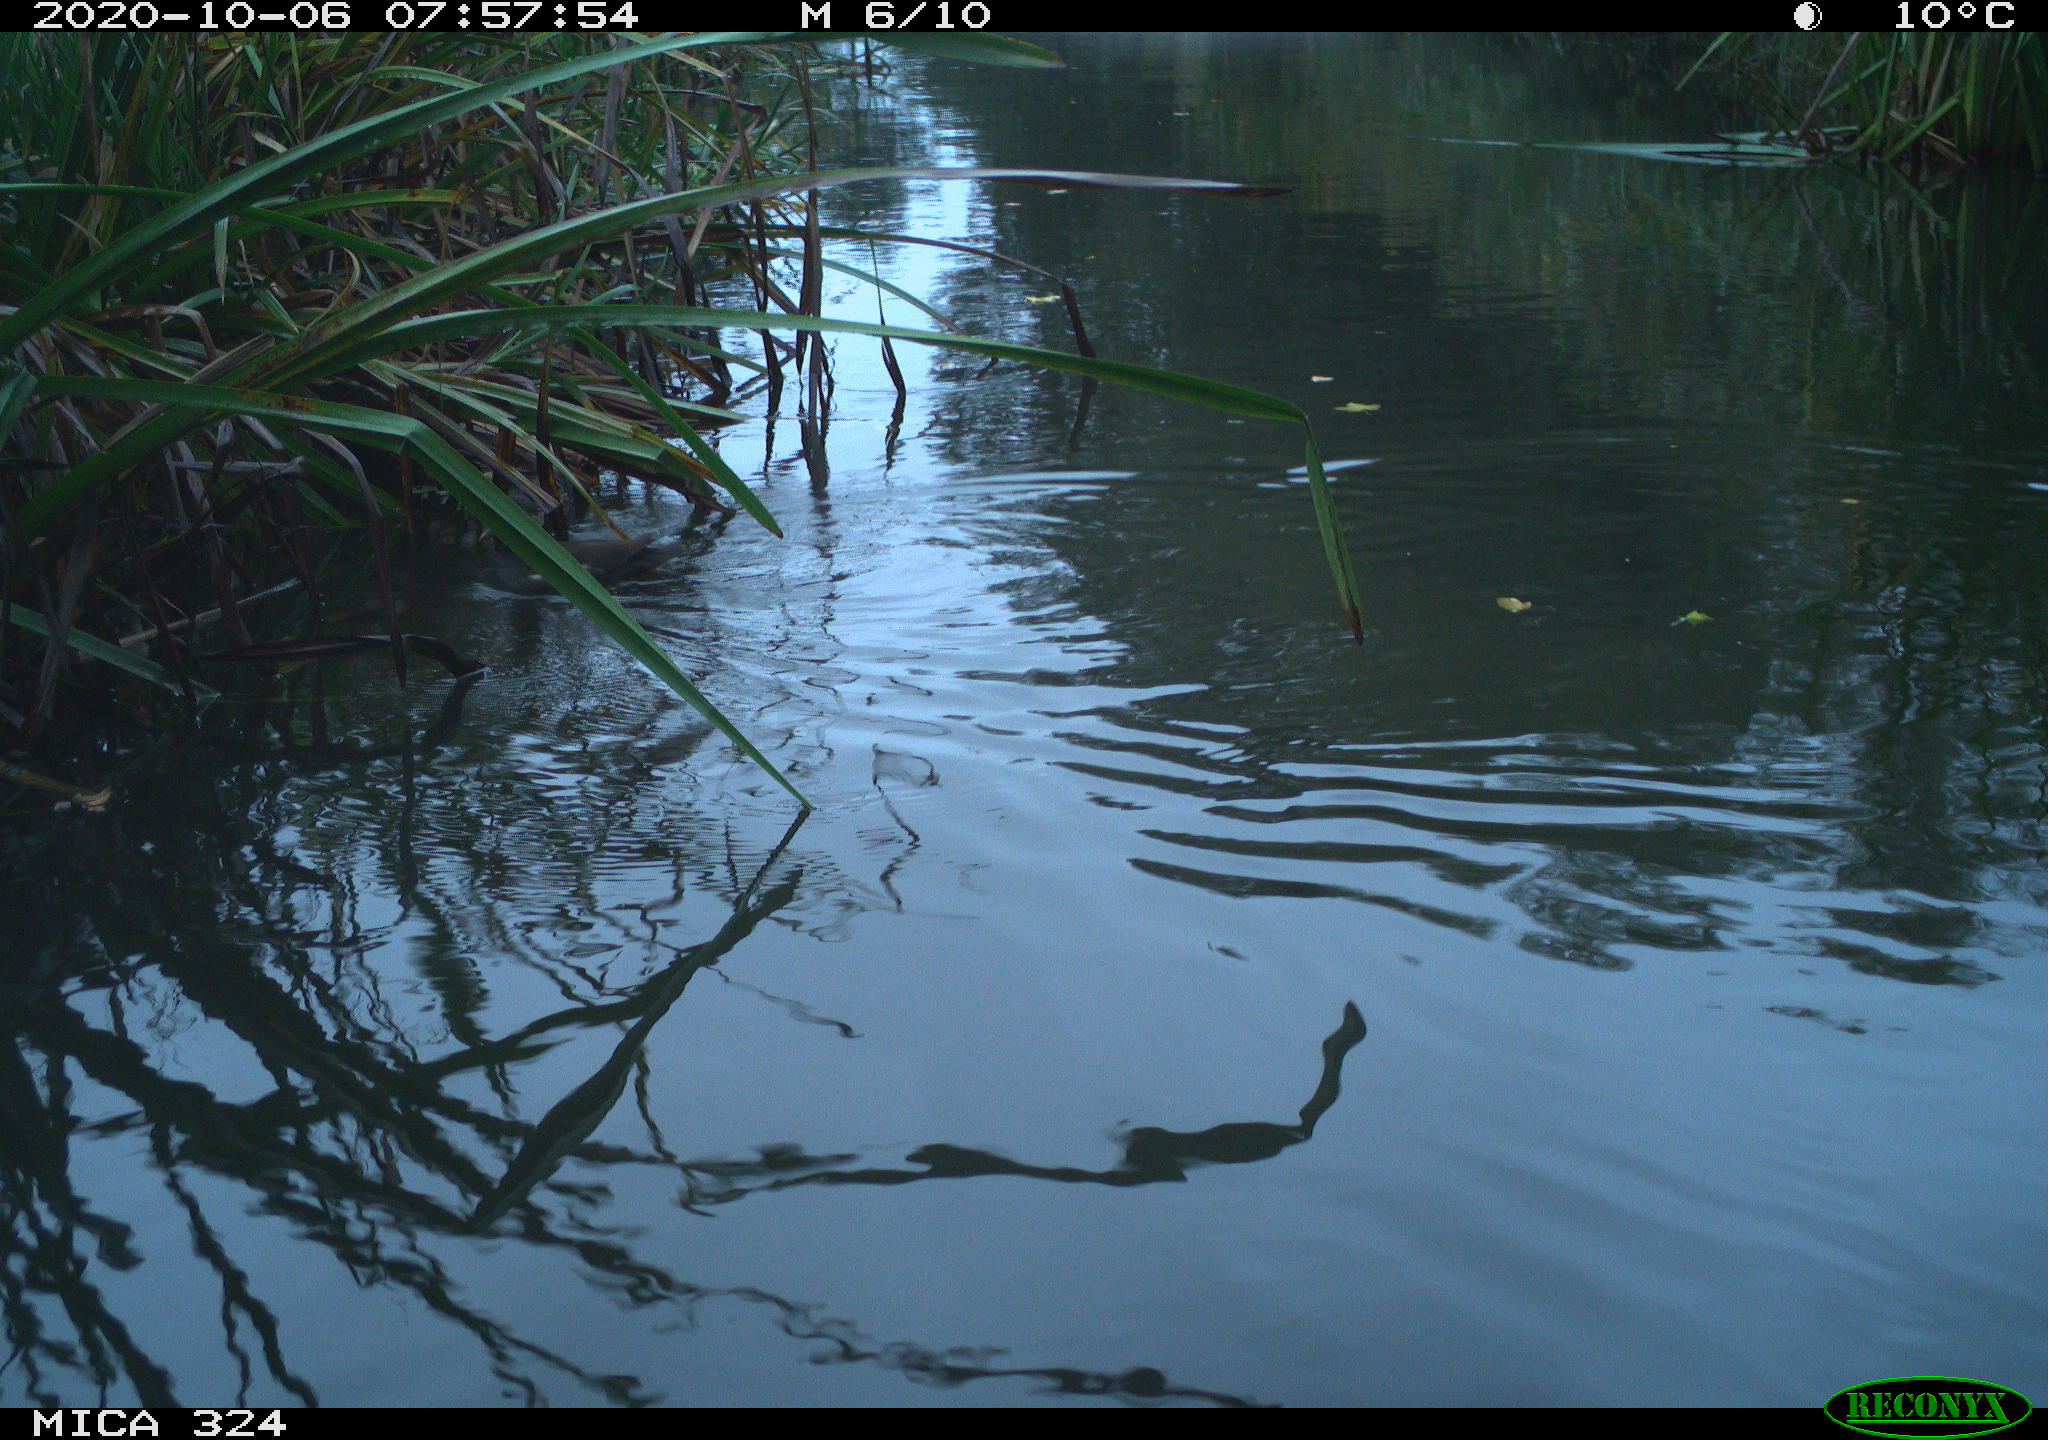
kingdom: Animalia
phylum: Chordata
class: Aves
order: Gruiformes
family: Rallidae
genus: Gallinula
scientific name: Gallinula chloropus
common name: Common moorhen
